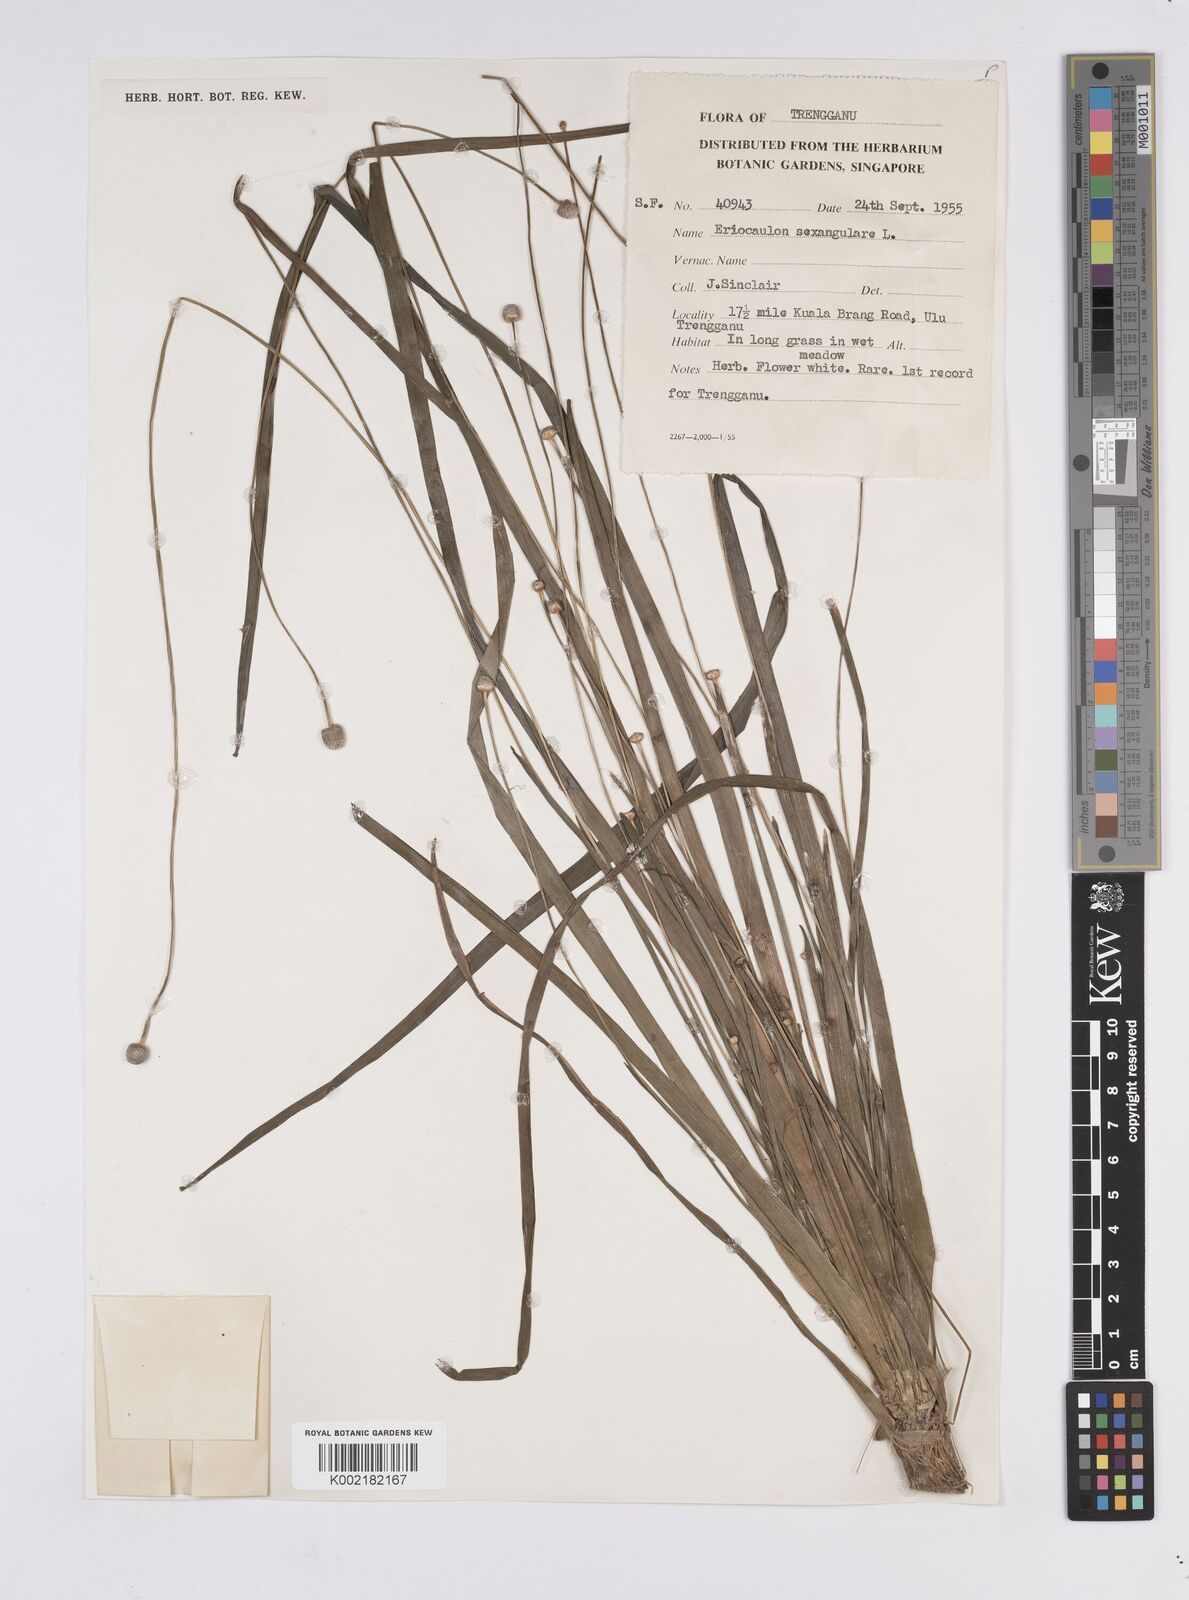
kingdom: Plantae
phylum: Tracheophyta
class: Liliopsida
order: Poales
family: Eriocaulaceae
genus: Eriocaulon
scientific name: Eriocaulon sexangulare
